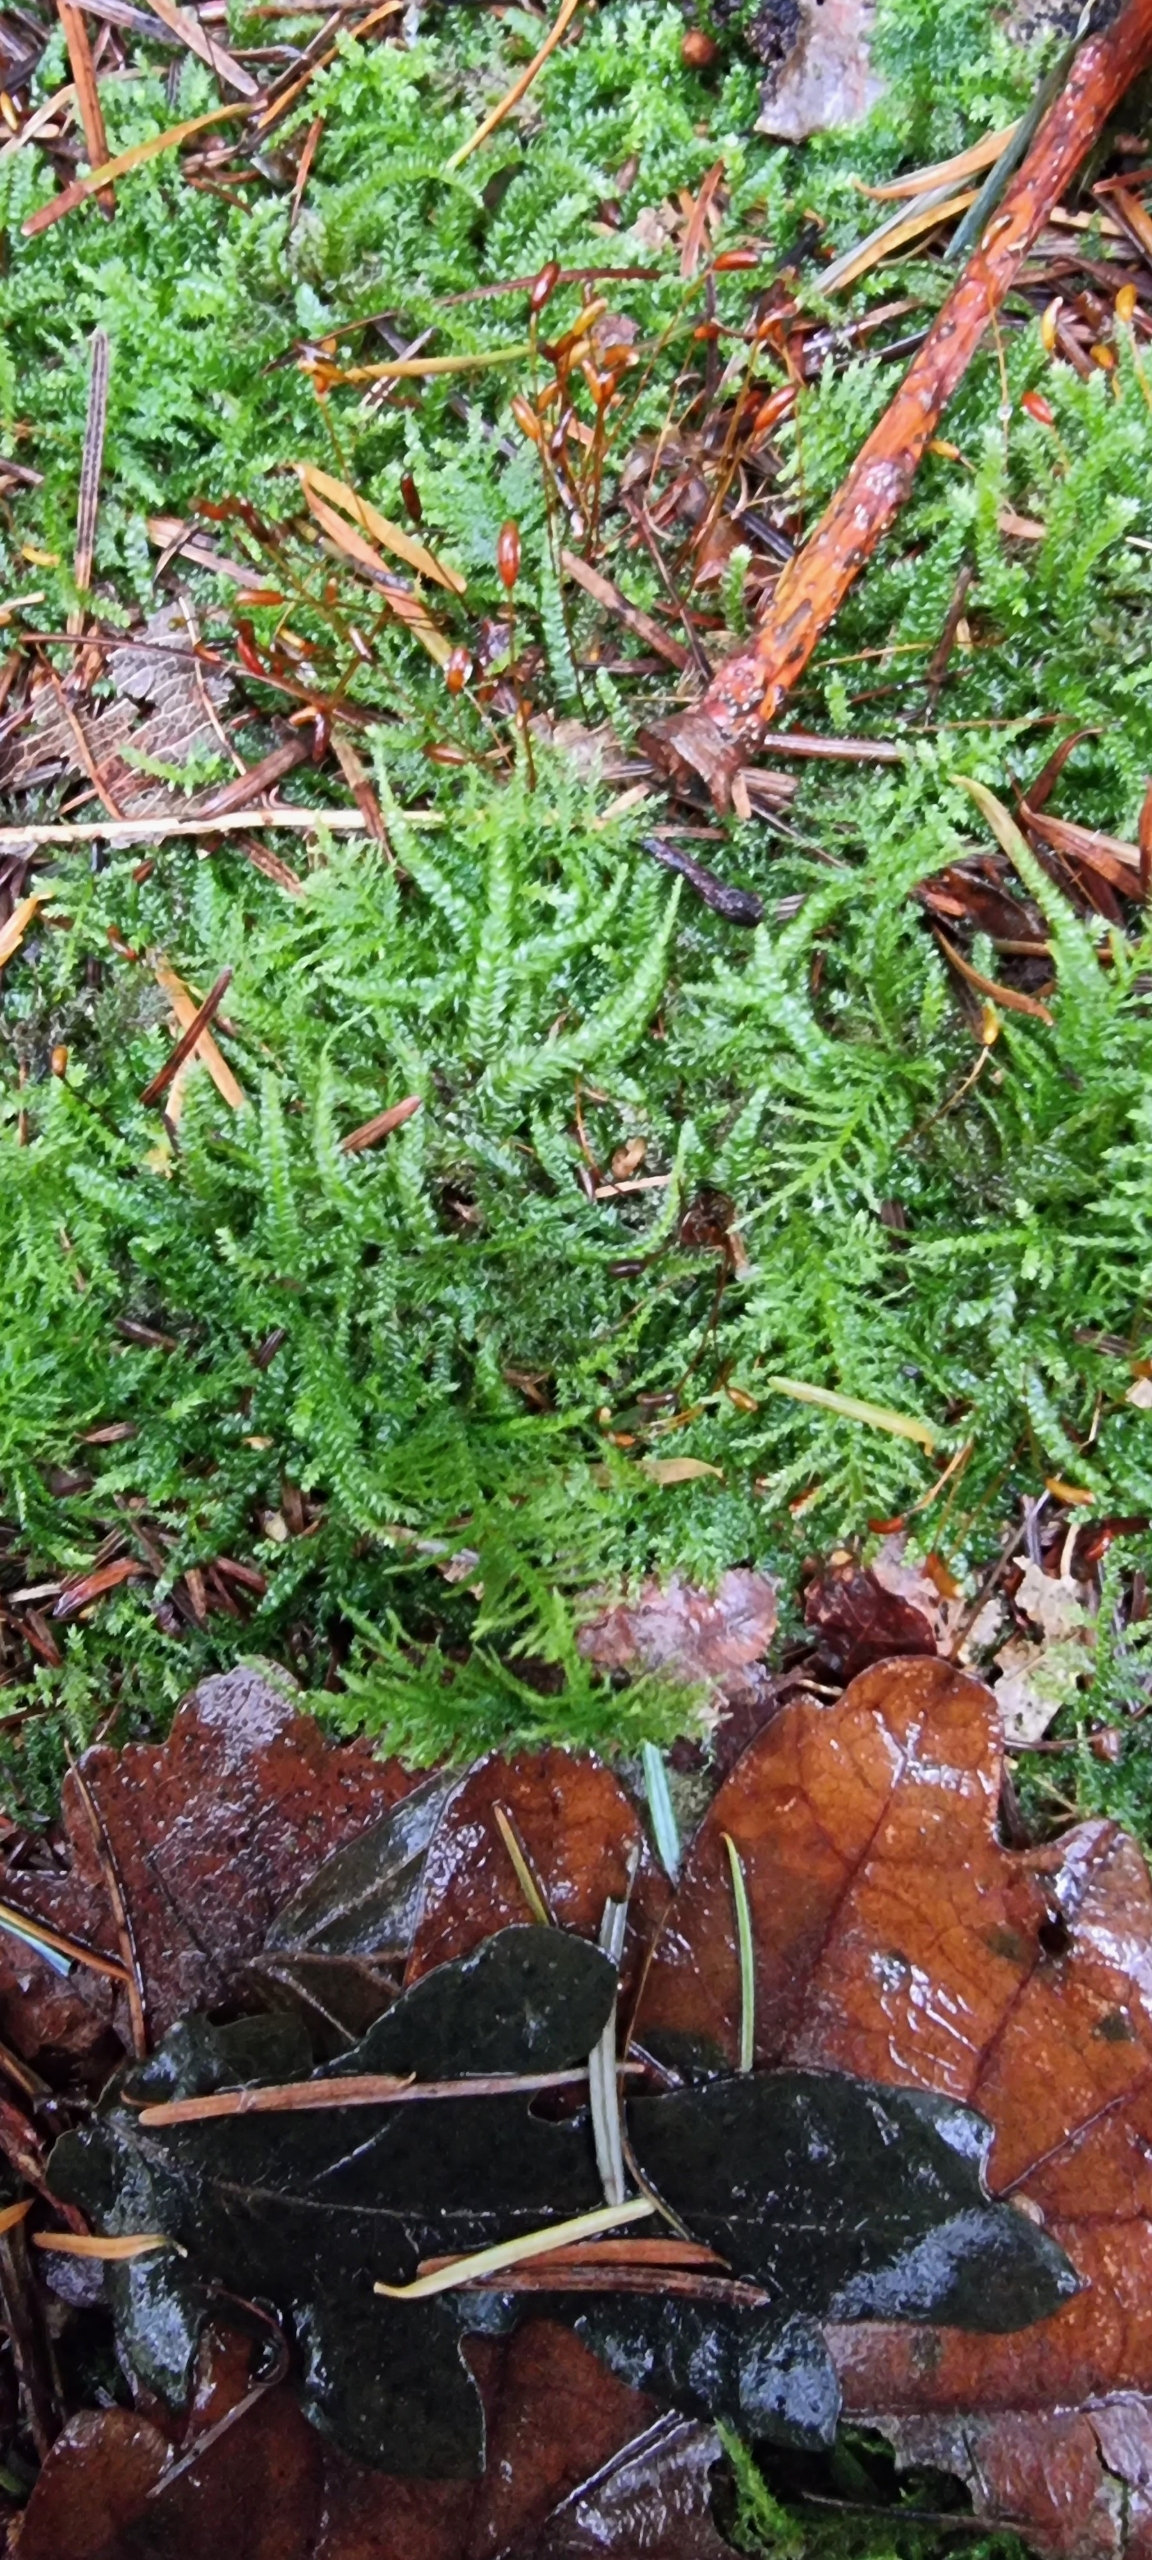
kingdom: Plantae
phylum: Bryophyta
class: Bryopsida
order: Hypnales
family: Plagiotheciaceae
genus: Plagiothecium
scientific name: Plagiothecium
